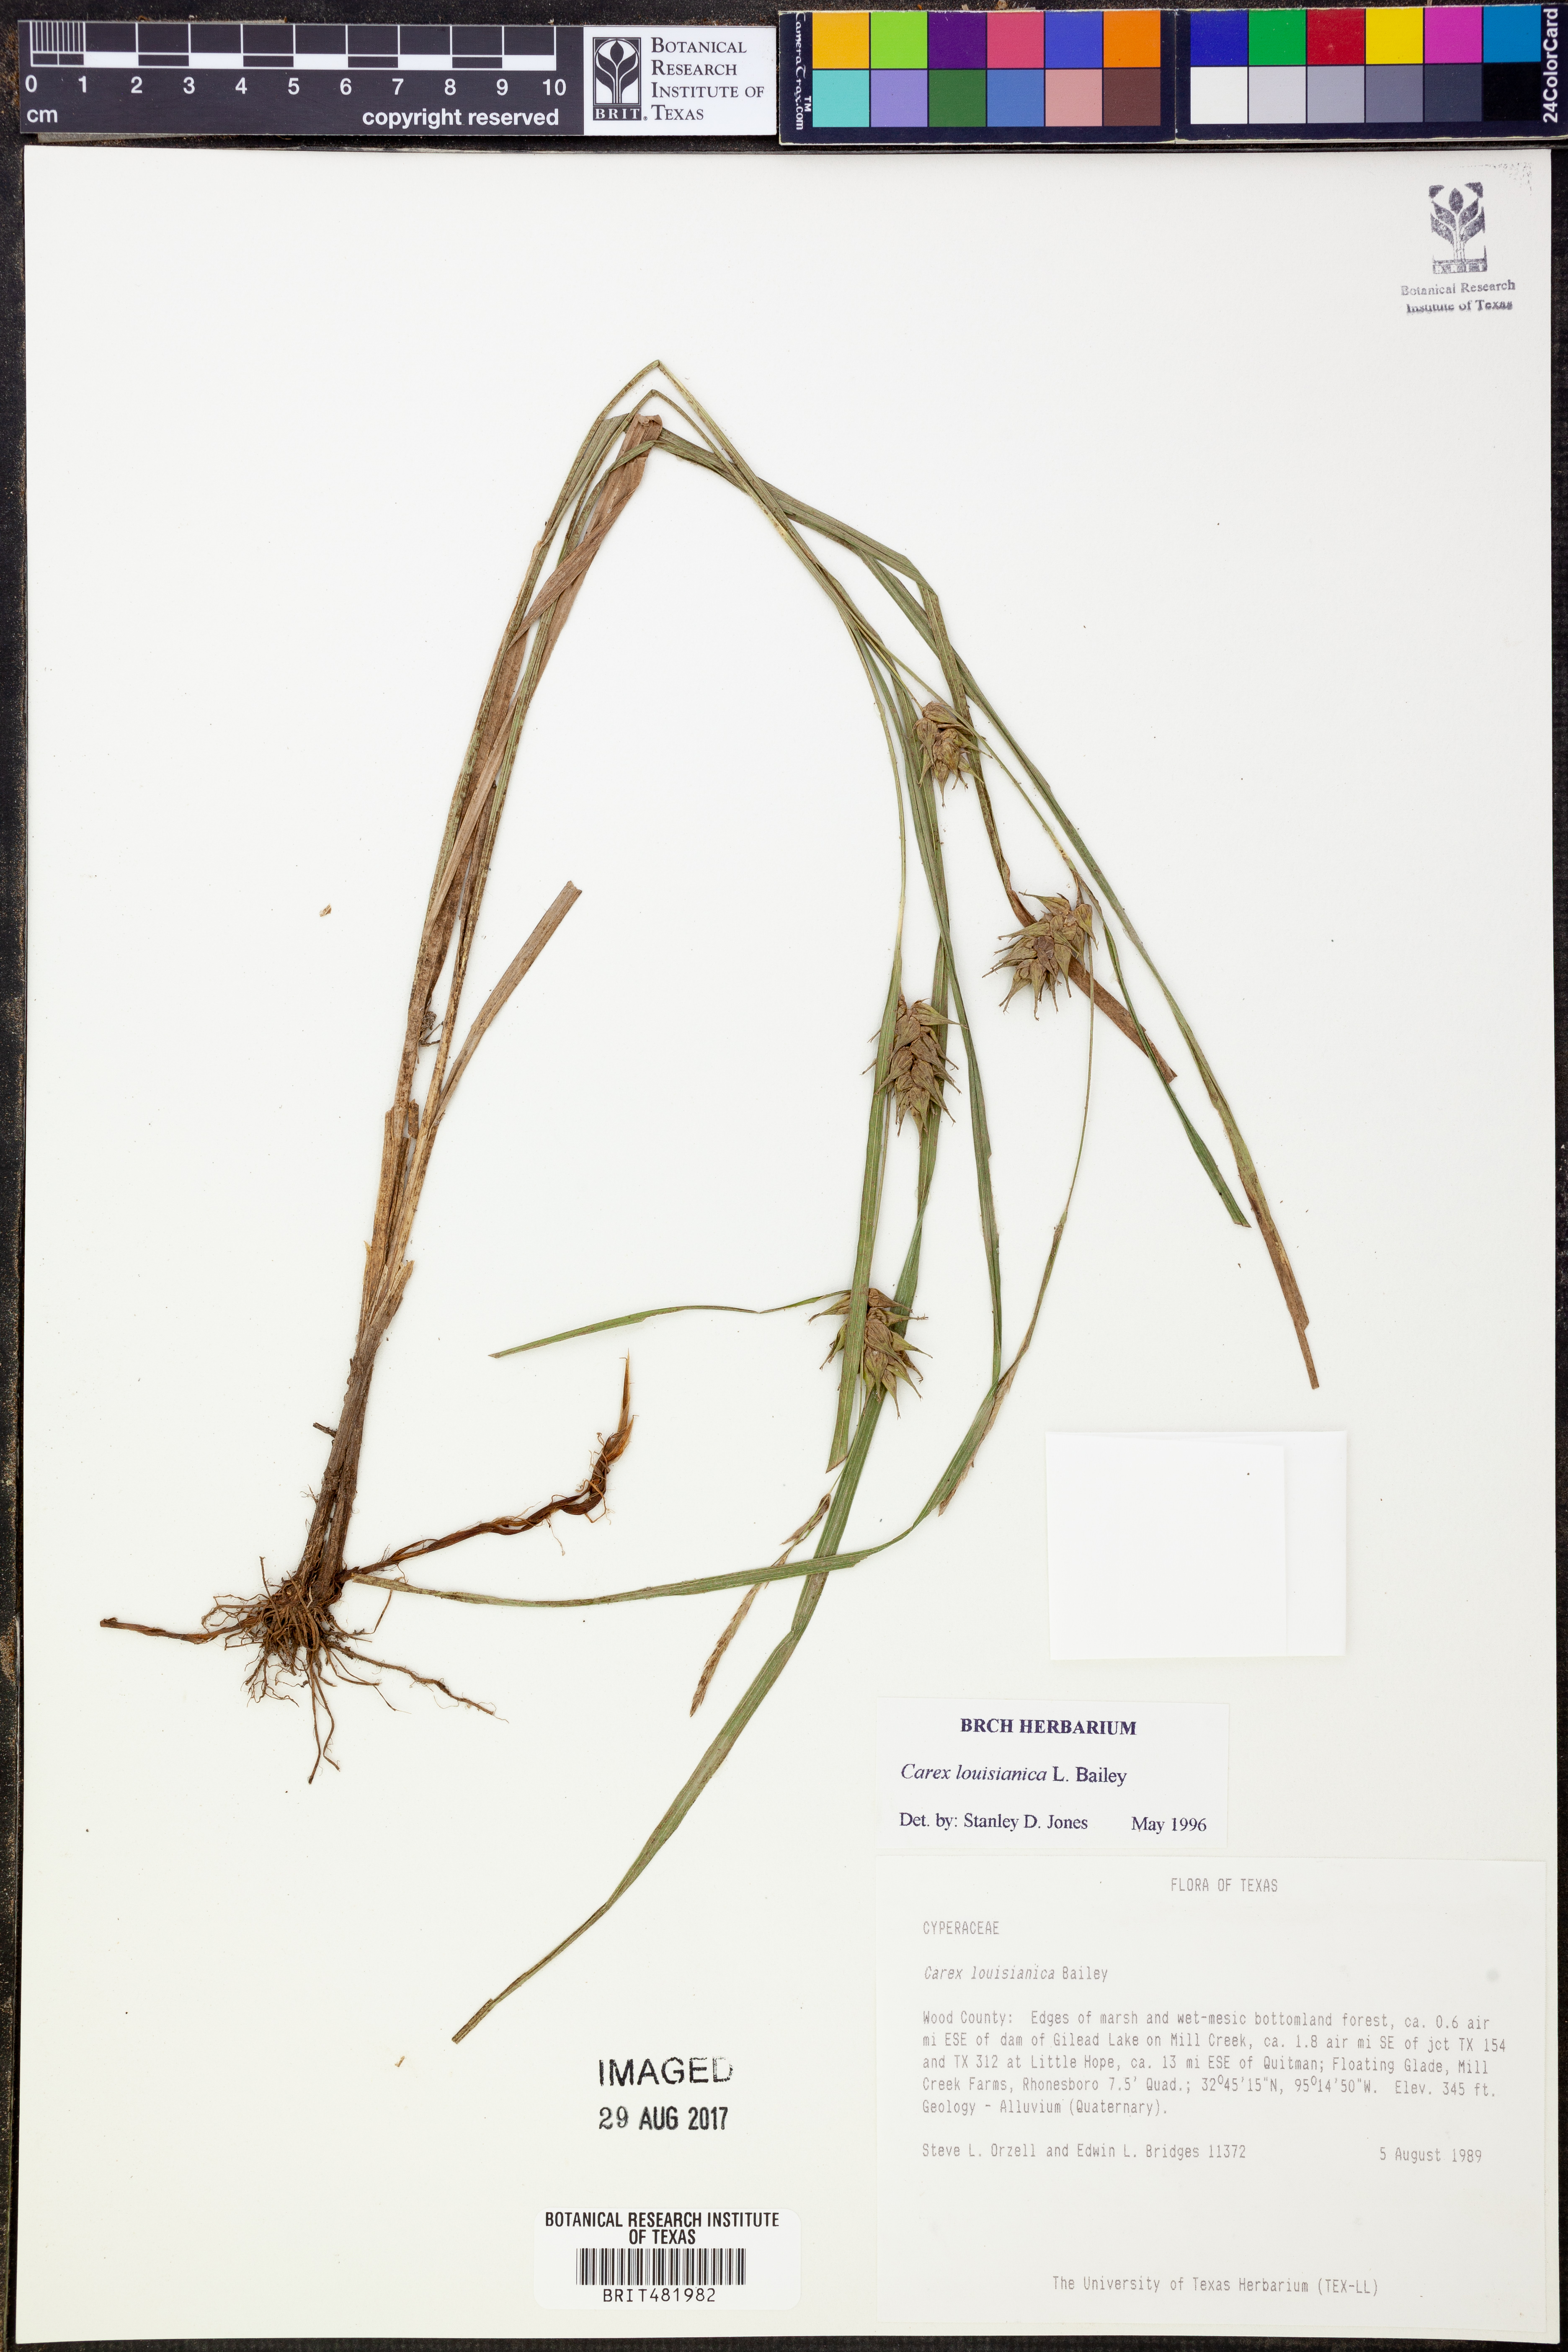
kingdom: Plantae
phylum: Tracheophyta
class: Liliopsida
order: Poales
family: Cyperaceae
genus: Carex
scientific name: Carex louisianica
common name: Louisiana sedge
